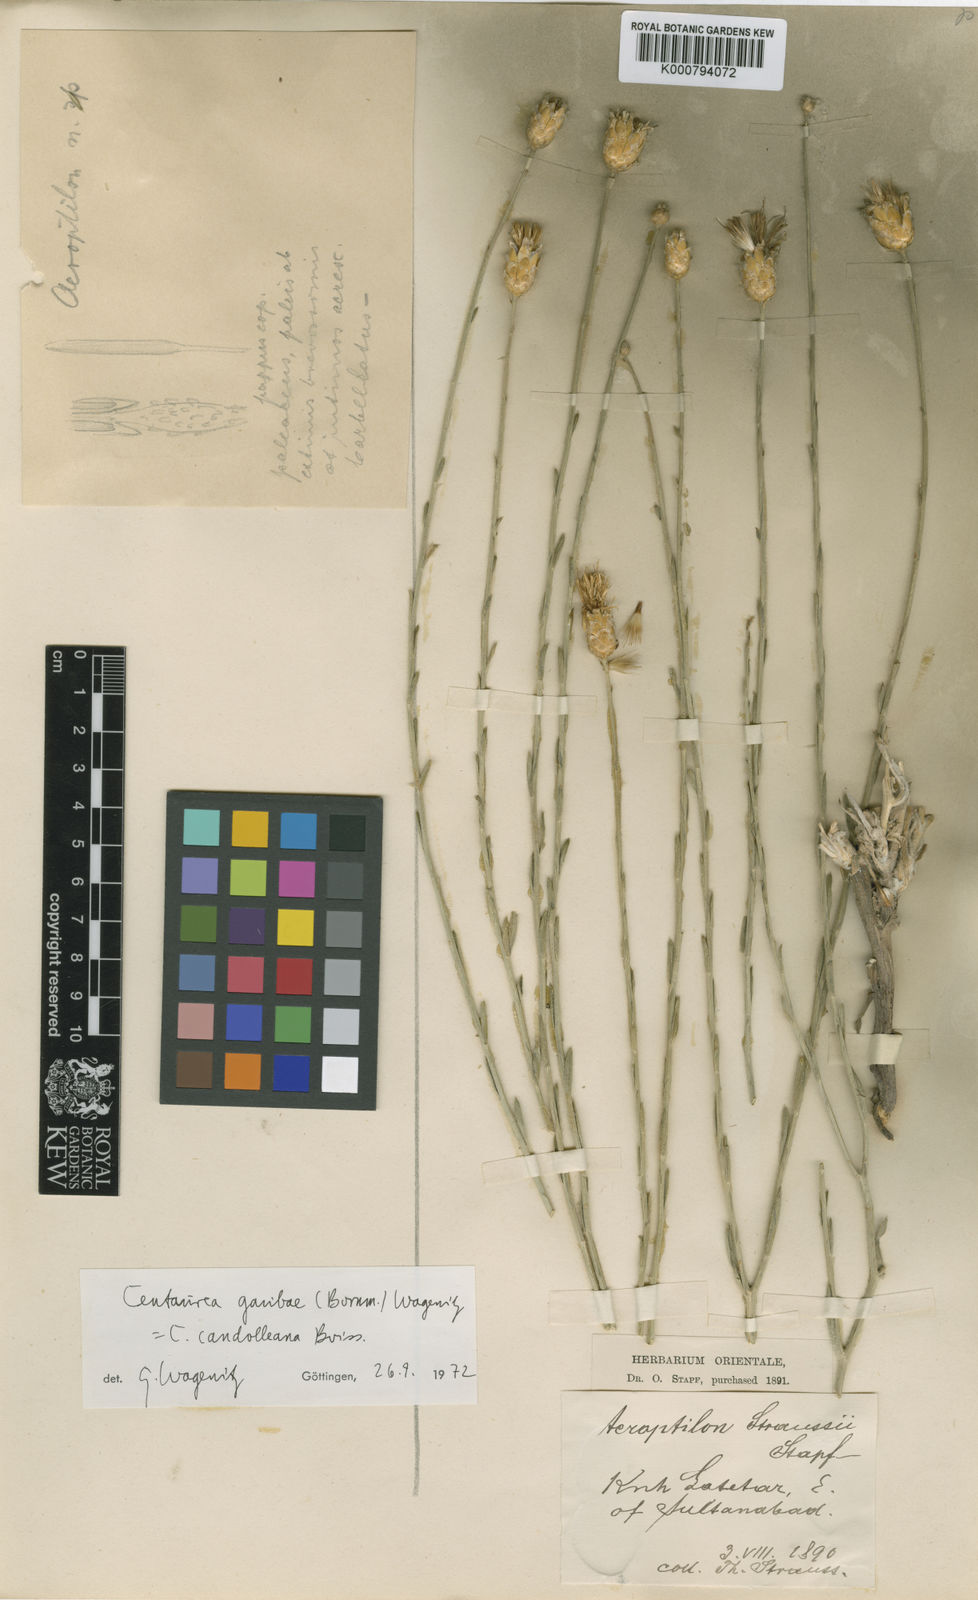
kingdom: Plantae
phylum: Tracheophyta
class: Magnoliopsida
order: Asterales
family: Asteraceae
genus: Centaurea
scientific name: Centaurea kotschyi
